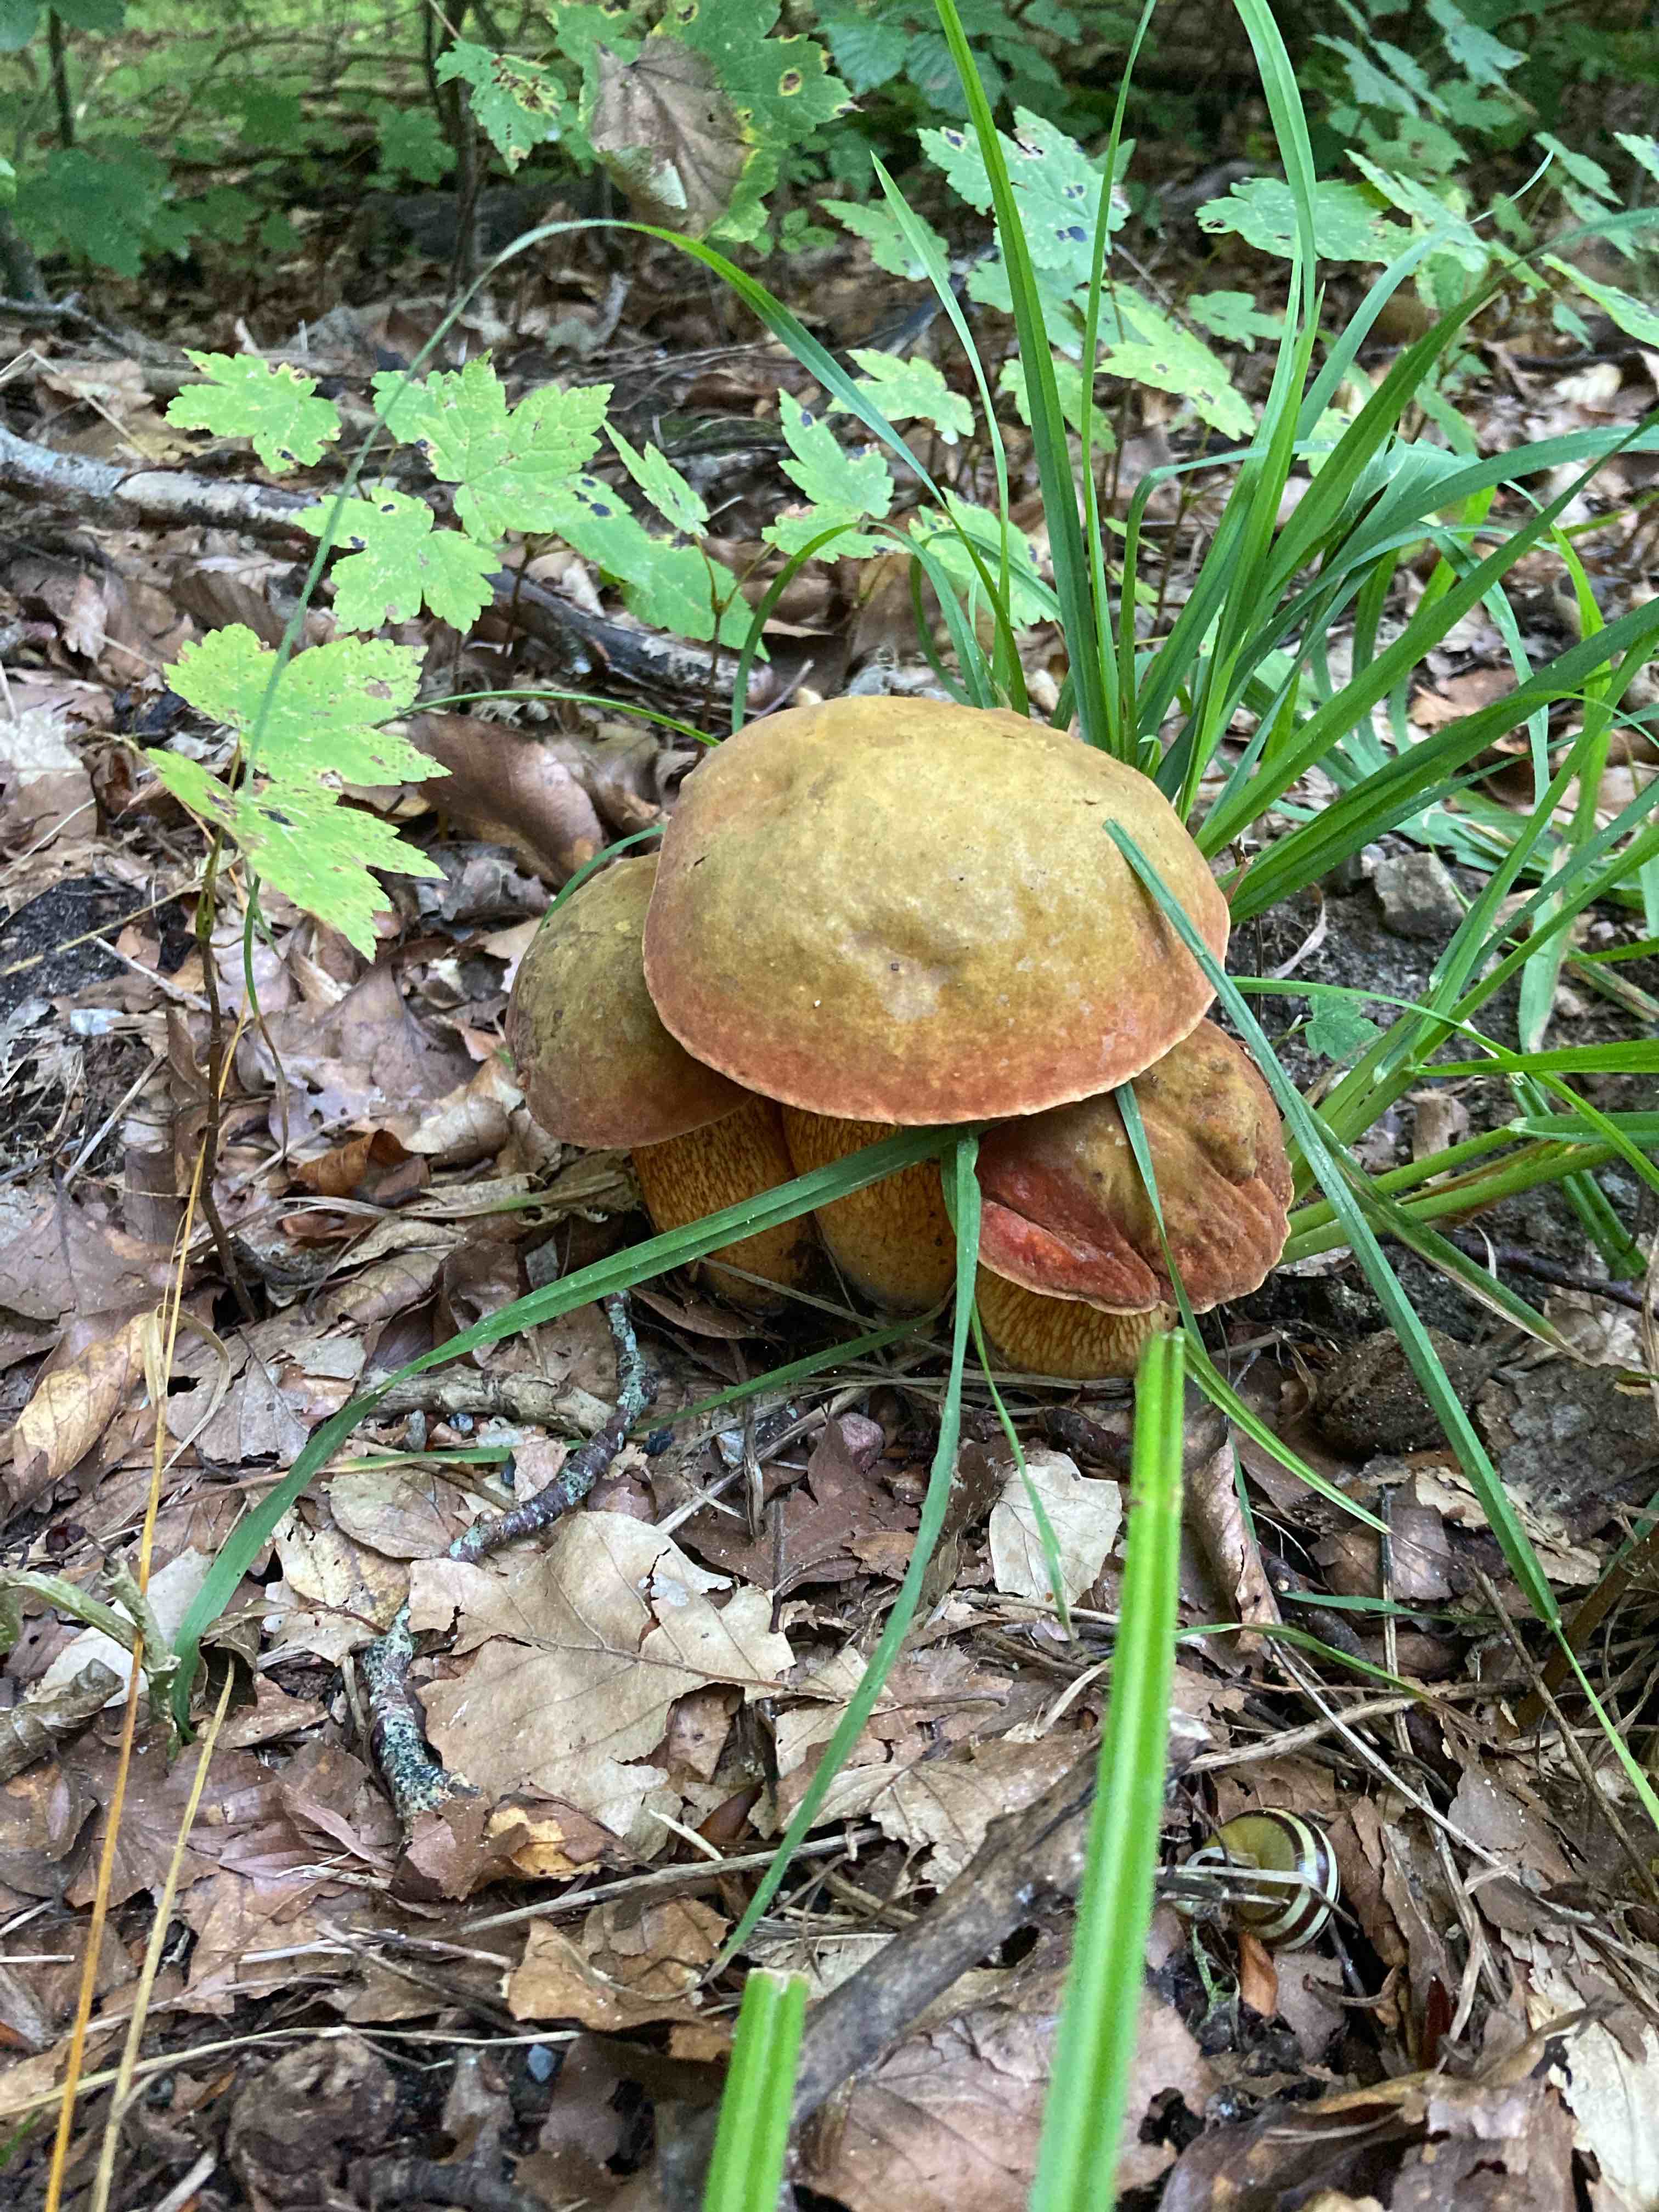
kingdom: Fungi
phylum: Basidiomycota
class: Agaricomycetes
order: Boletales
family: Boletaceae
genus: Suillellus
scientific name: Suillellus luridus
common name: netstokket indigorørhat
